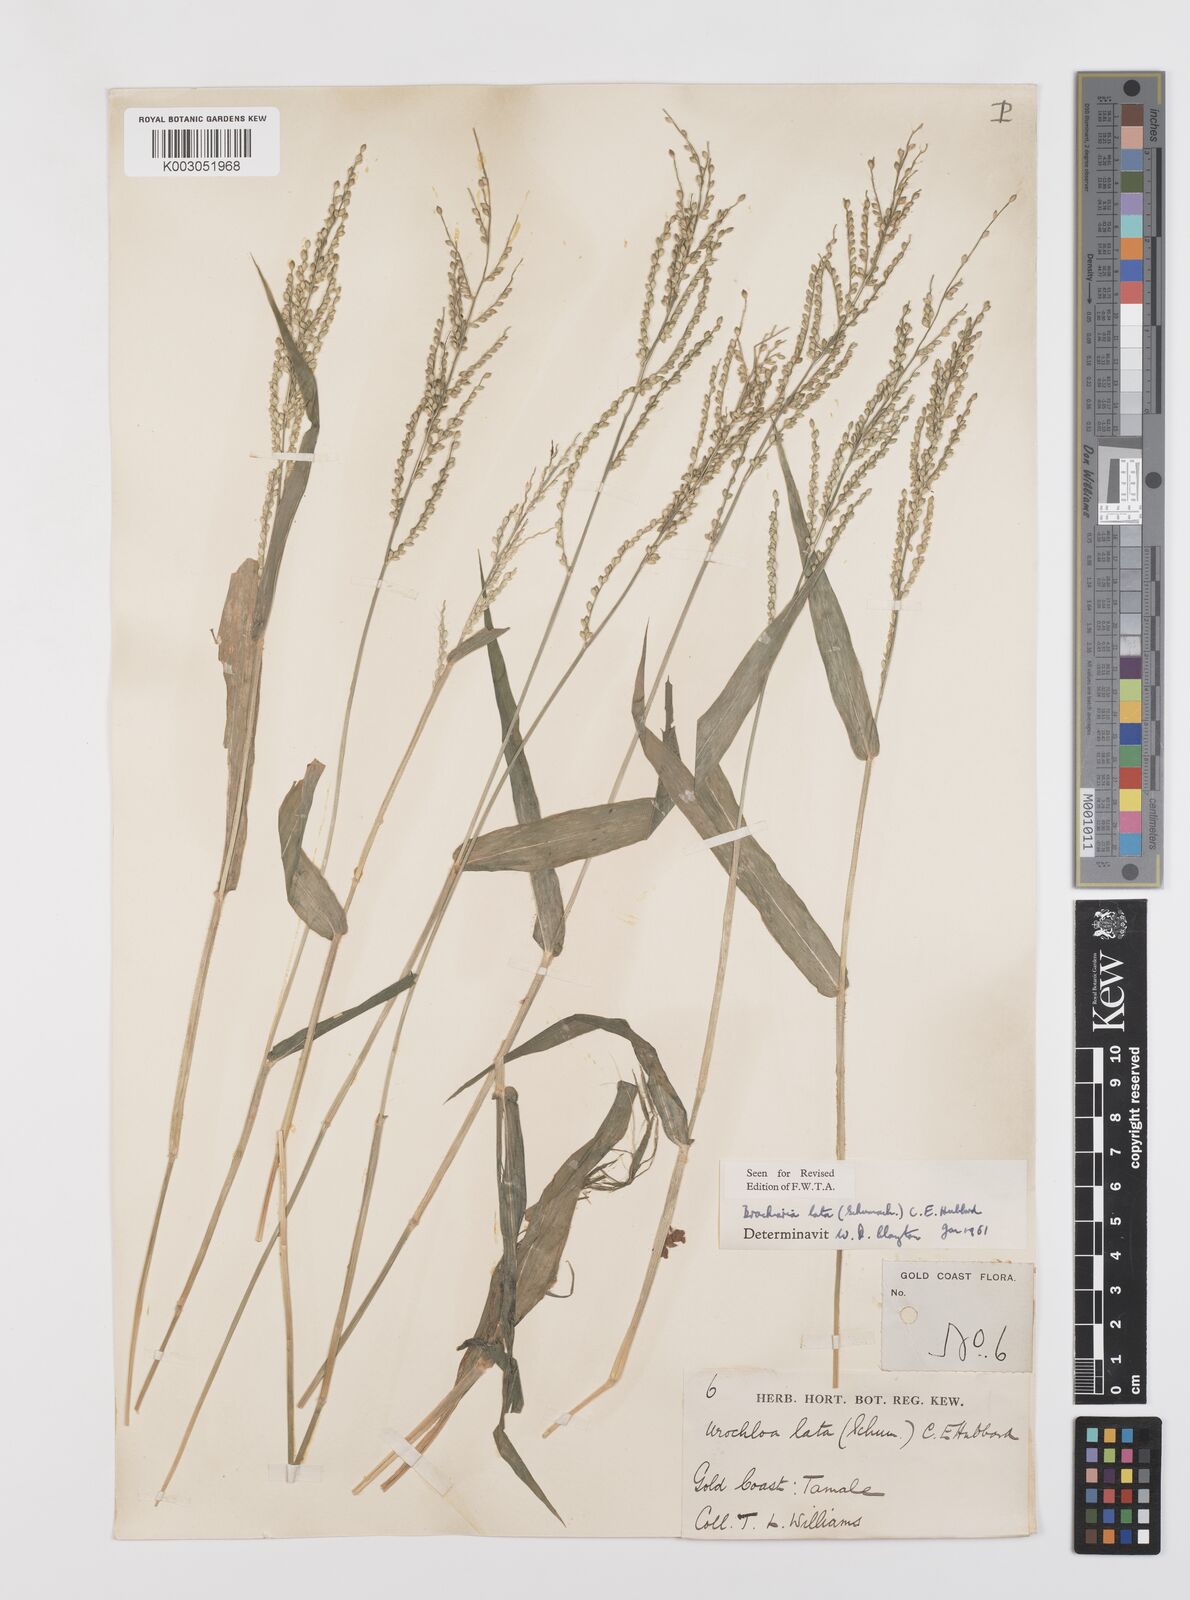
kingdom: Plantae
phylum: Tracheophyta
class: Liliopsida
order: Poales
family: Poaceae
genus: Urochloa
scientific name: Urochloa lata
